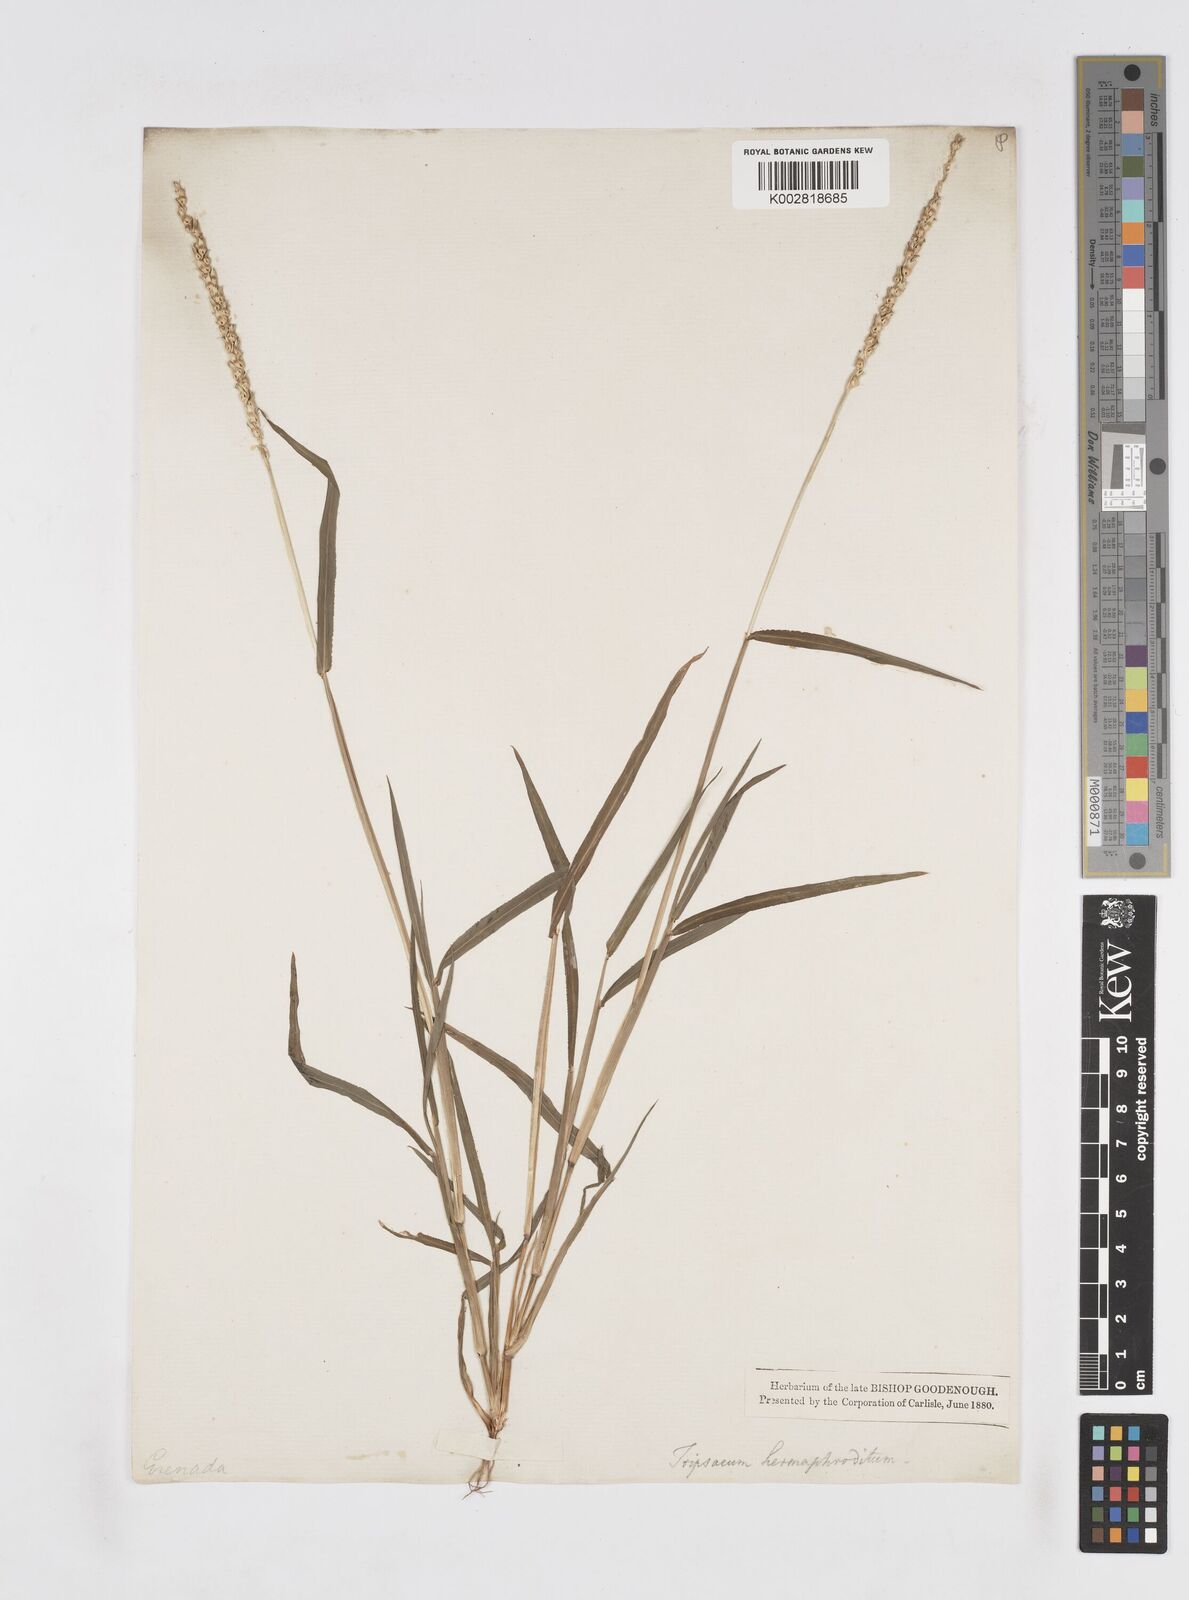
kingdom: Plantae
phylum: Tracheophyta
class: Liliopsida
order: Poales
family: Poaceae
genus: Anthephora
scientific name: Anthephora hermaphrodita
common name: Oldfield grass
